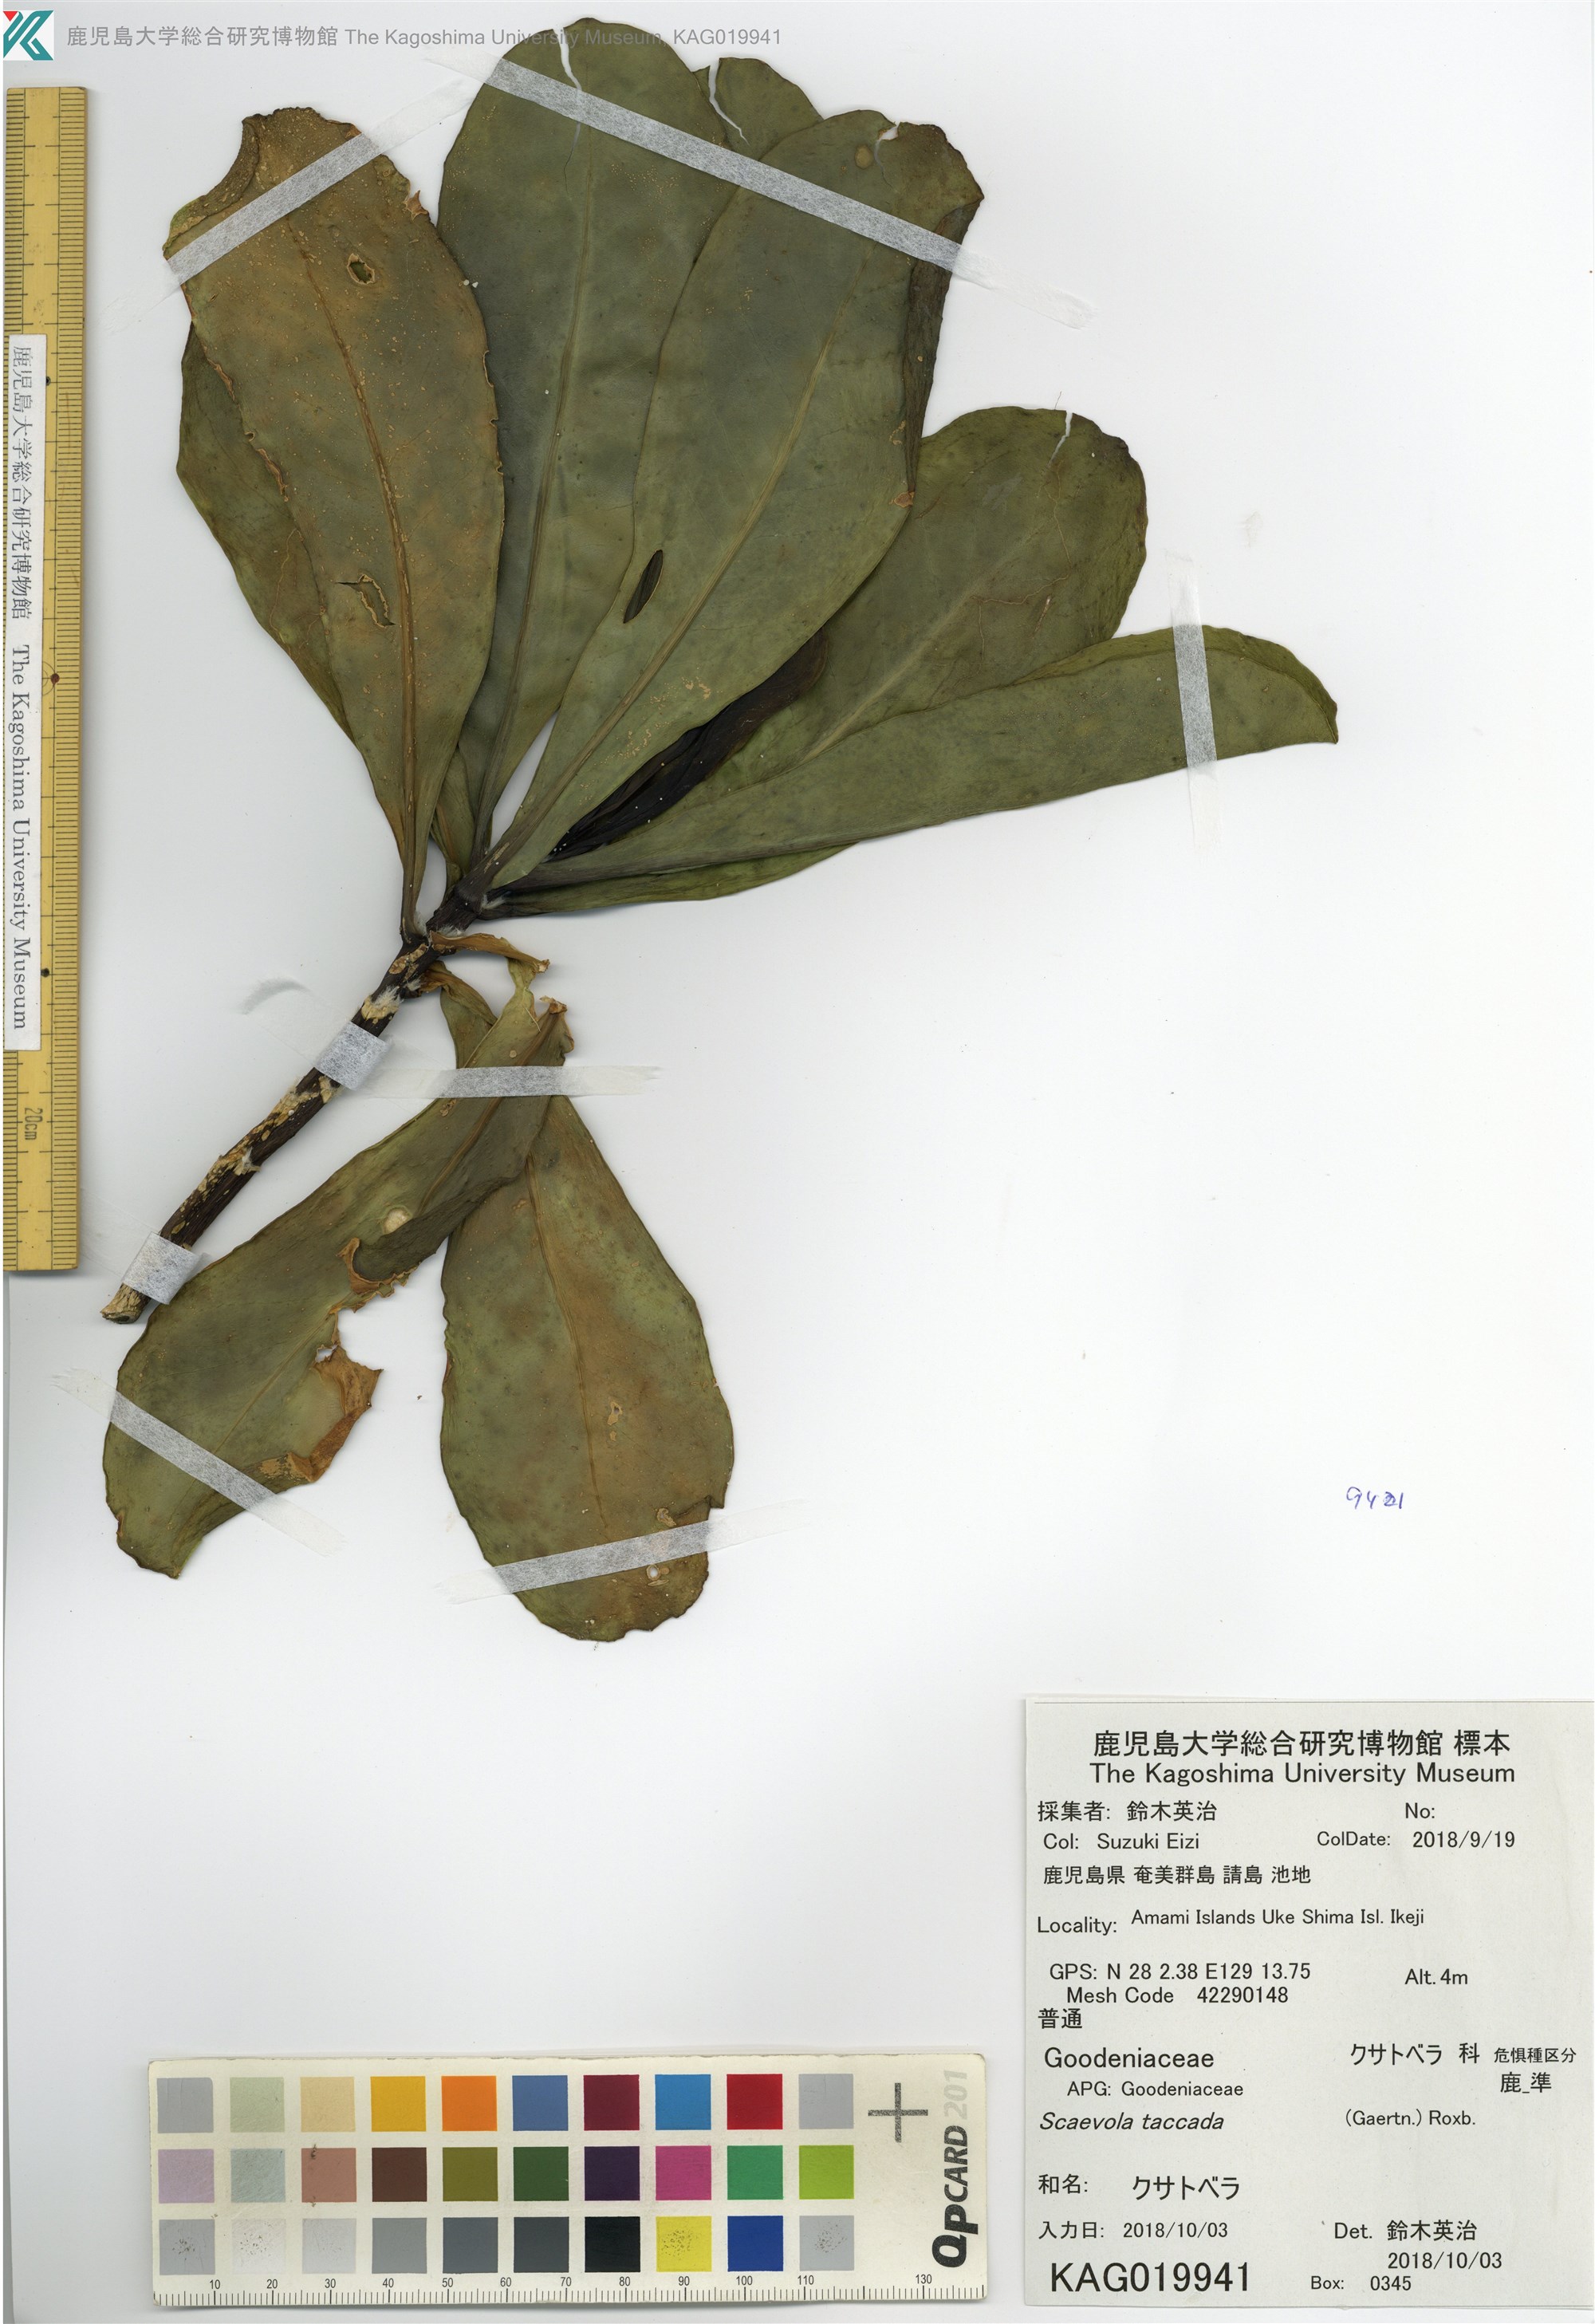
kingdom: Plantae
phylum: Tracheophyta
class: Magnoliopsida
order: Asterales
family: Goodeniaceae
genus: Scaevola
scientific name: Scaevola taccada
